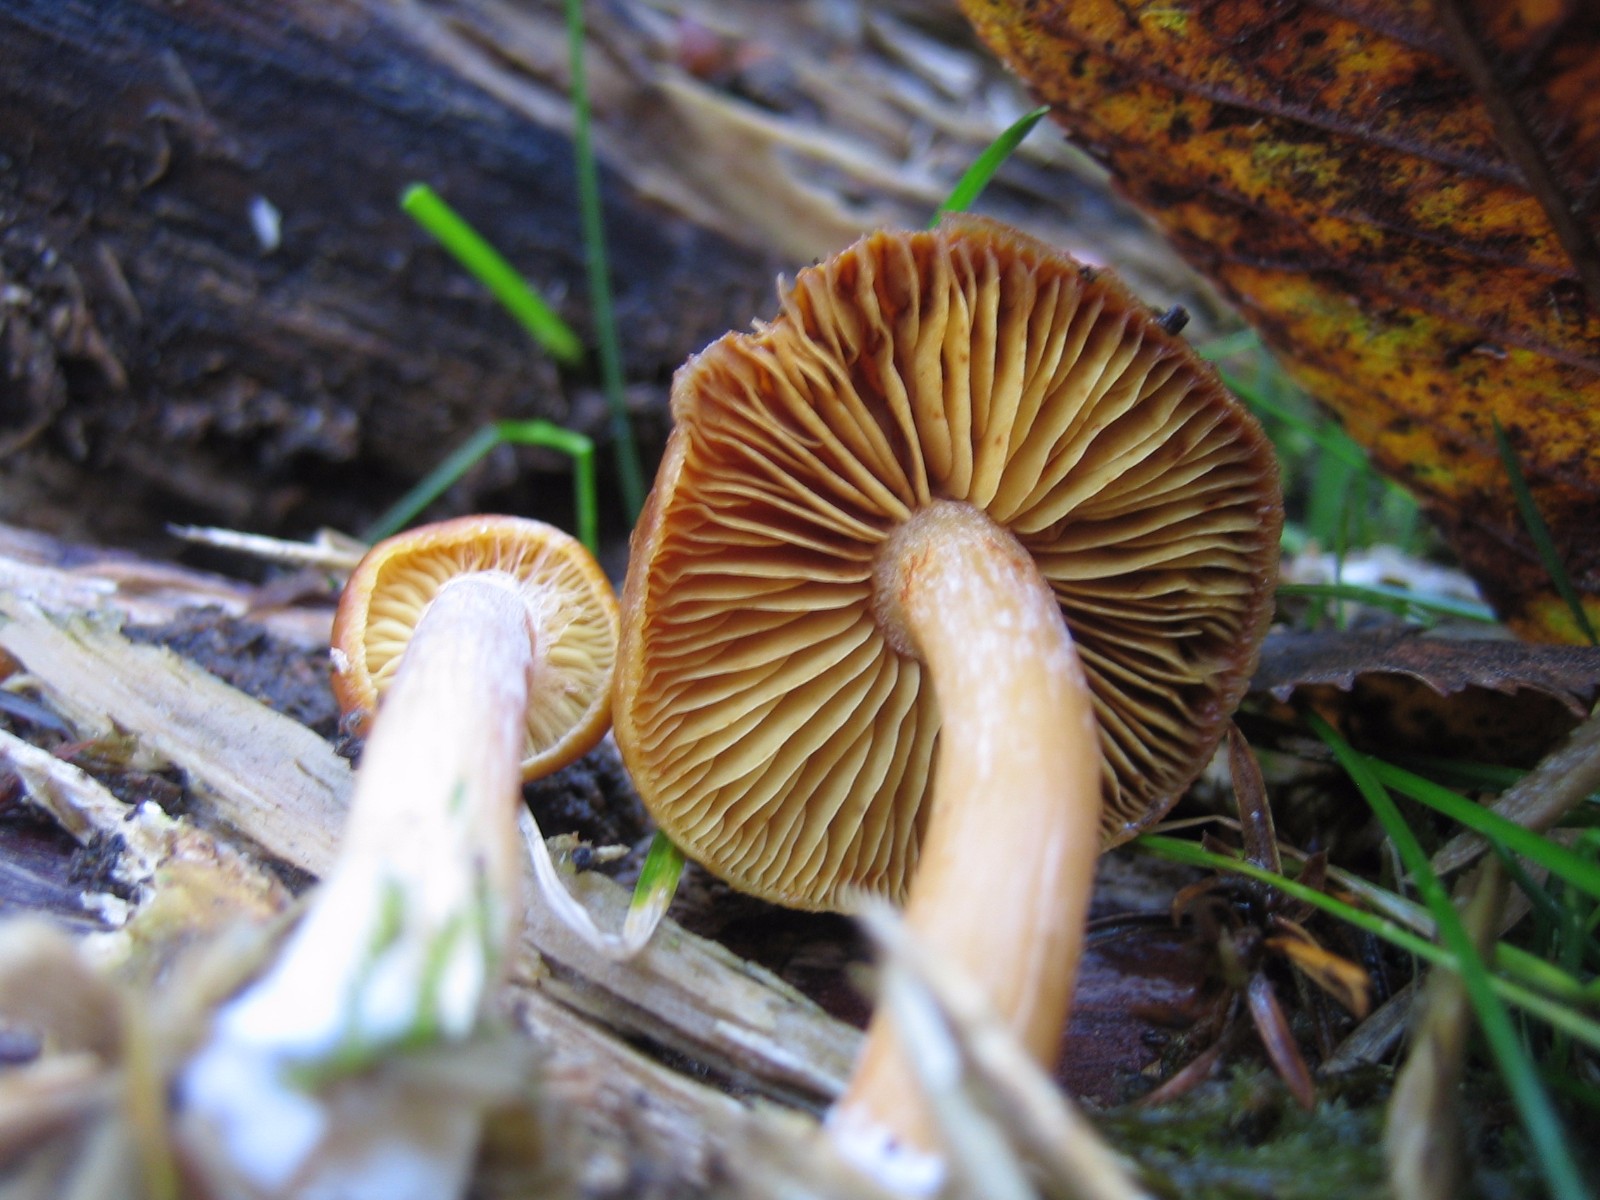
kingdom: Fungi
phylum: Basidiomycota
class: Agaricomycetes
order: Agaricales
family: Hymenogastraceae
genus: Gymnopilus
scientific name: Gymnopilus penetrans
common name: plettet flammehat
